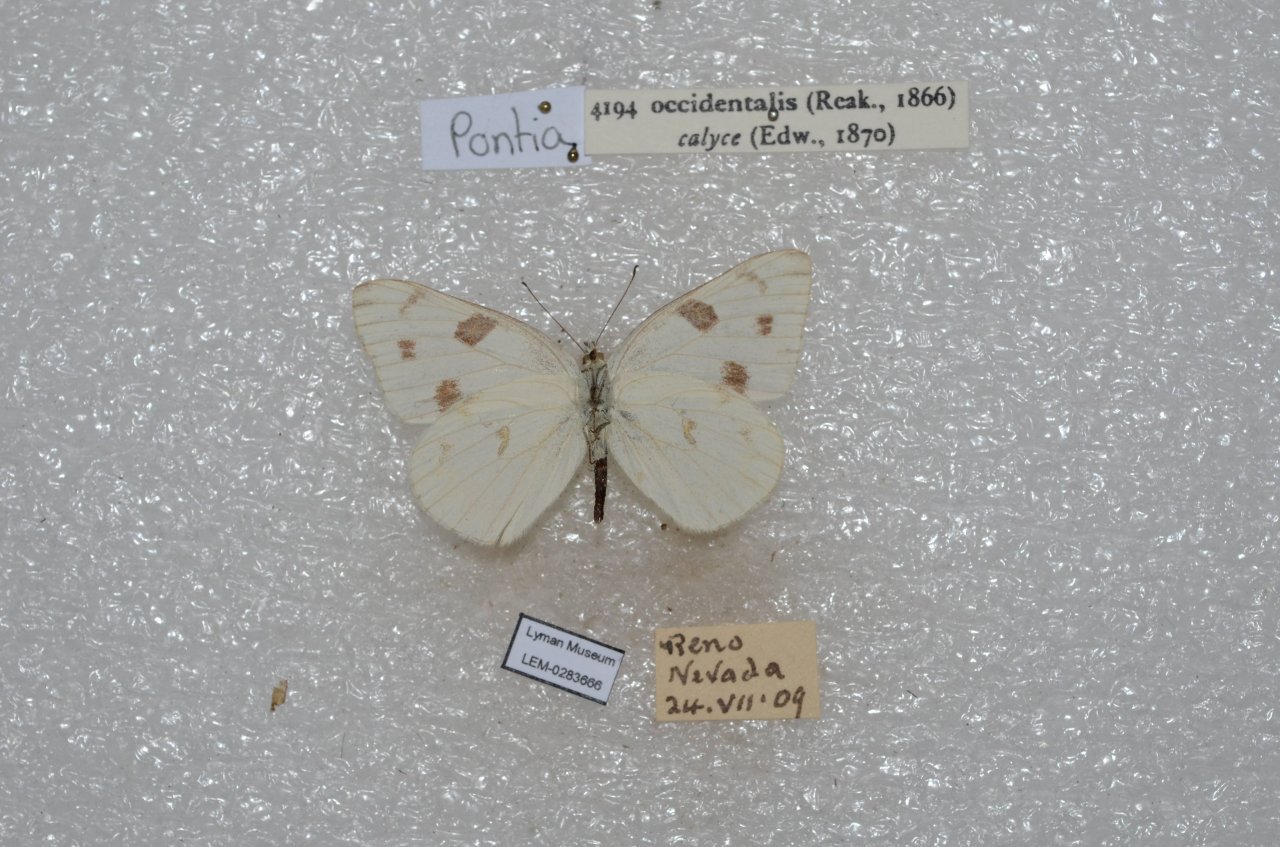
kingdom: Animalia
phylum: Arthropoda
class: Insecta
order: Lepidoptera
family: Pieridae
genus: Pontia
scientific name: Pontia occidentalis
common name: Western White
